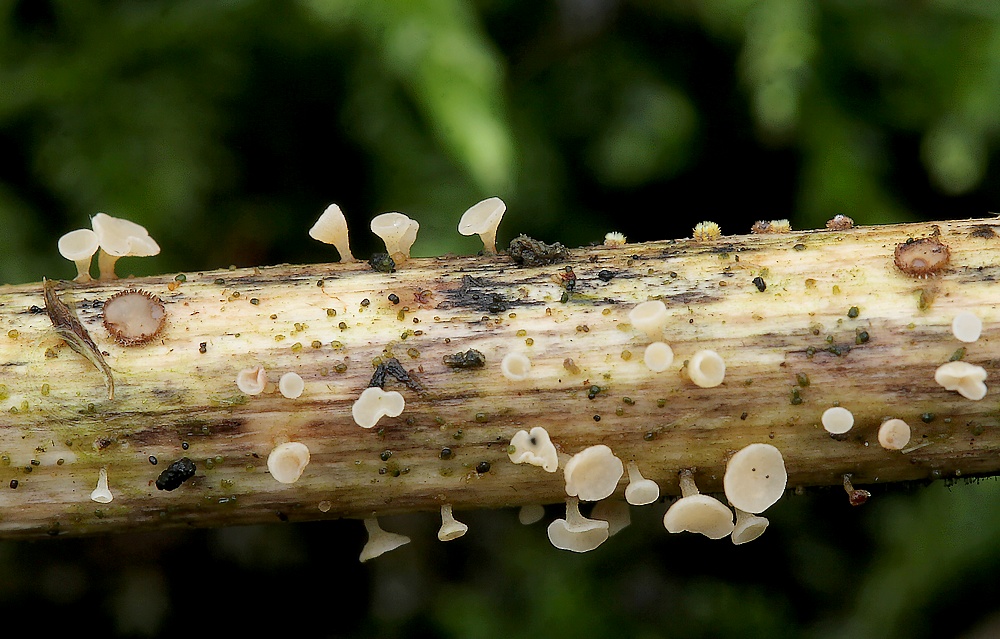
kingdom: Fungi
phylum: Ascomycota
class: Leotiomycetes
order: Helotiales
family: Helotiaceae
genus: Cyathicula
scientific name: Cyathicula cyathoidea
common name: pokal-stilkskive
